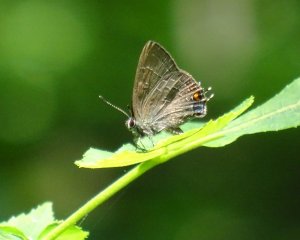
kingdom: Animalia
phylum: Arthropoda
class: Insecta
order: Lepidoptera
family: Lycaenidae
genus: Satyrium
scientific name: Satyrium calanus
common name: Banded Hairstreak
